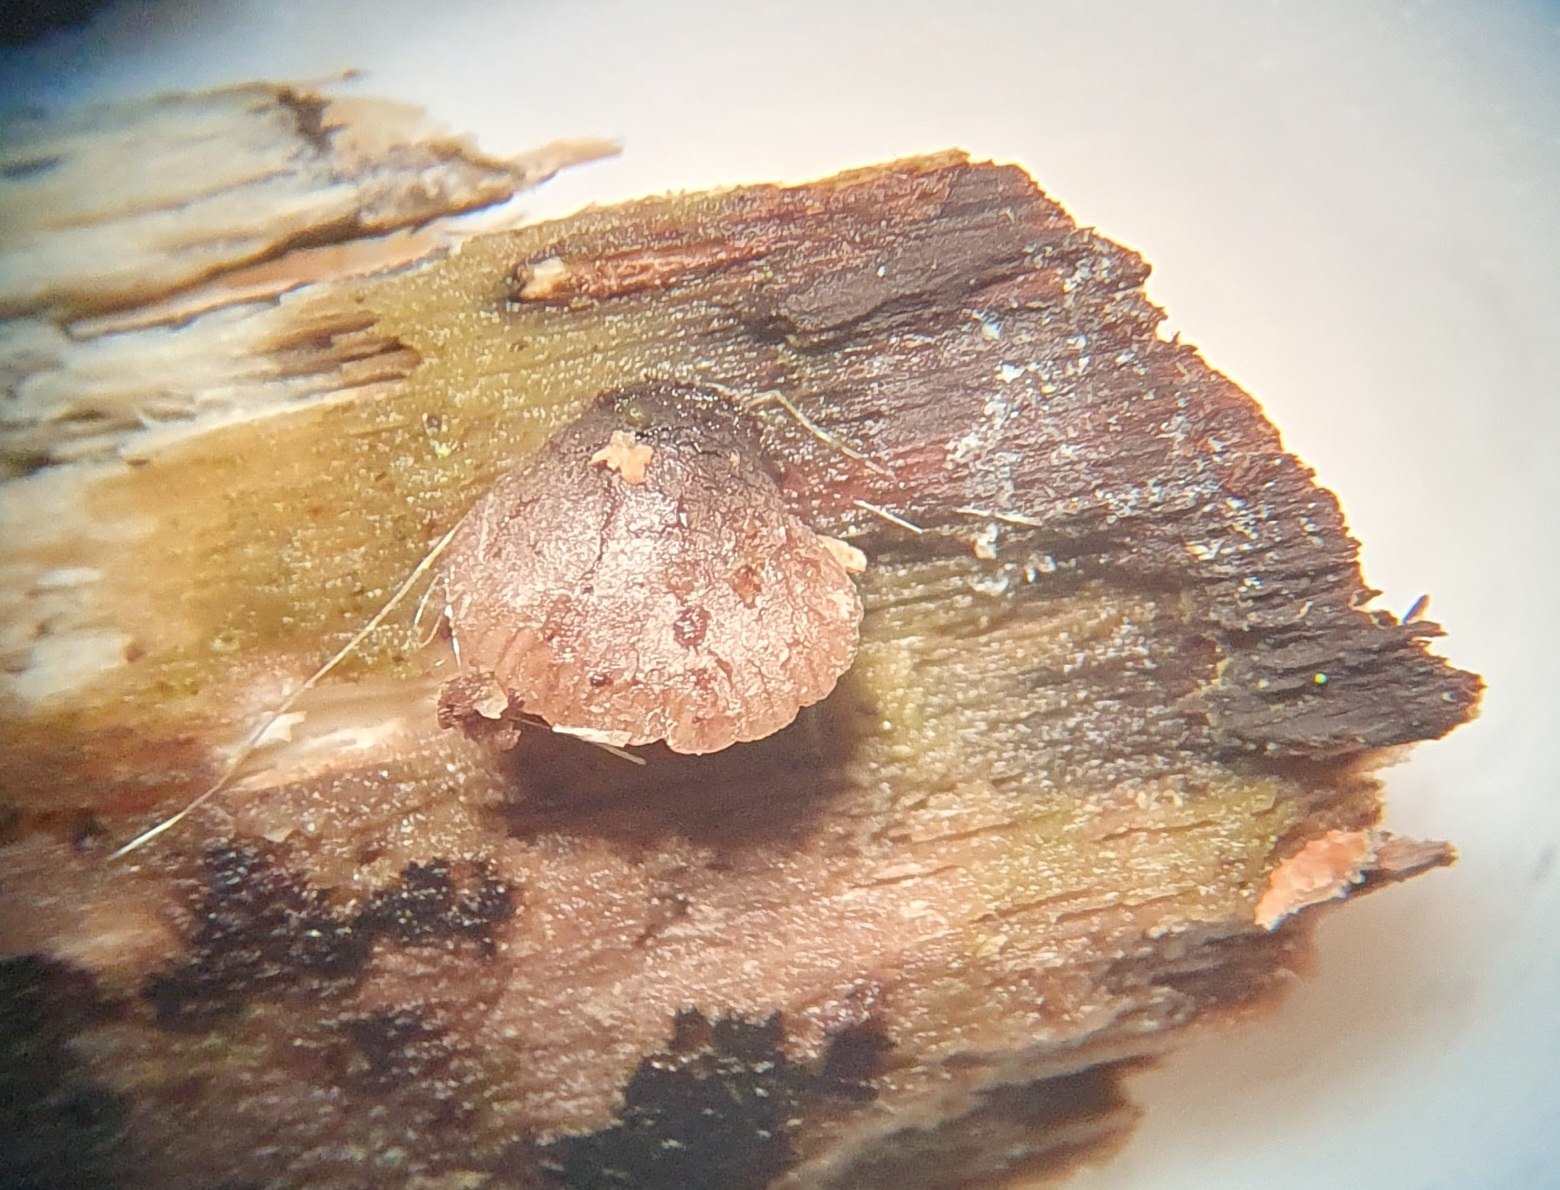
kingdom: Fungi
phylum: Basidiomycota
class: Agaricomycetes
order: Agaricales
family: Pleurotaceae
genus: Resupinatus
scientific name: Resupinatus trichotis
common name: mørkfiltet barkhat
